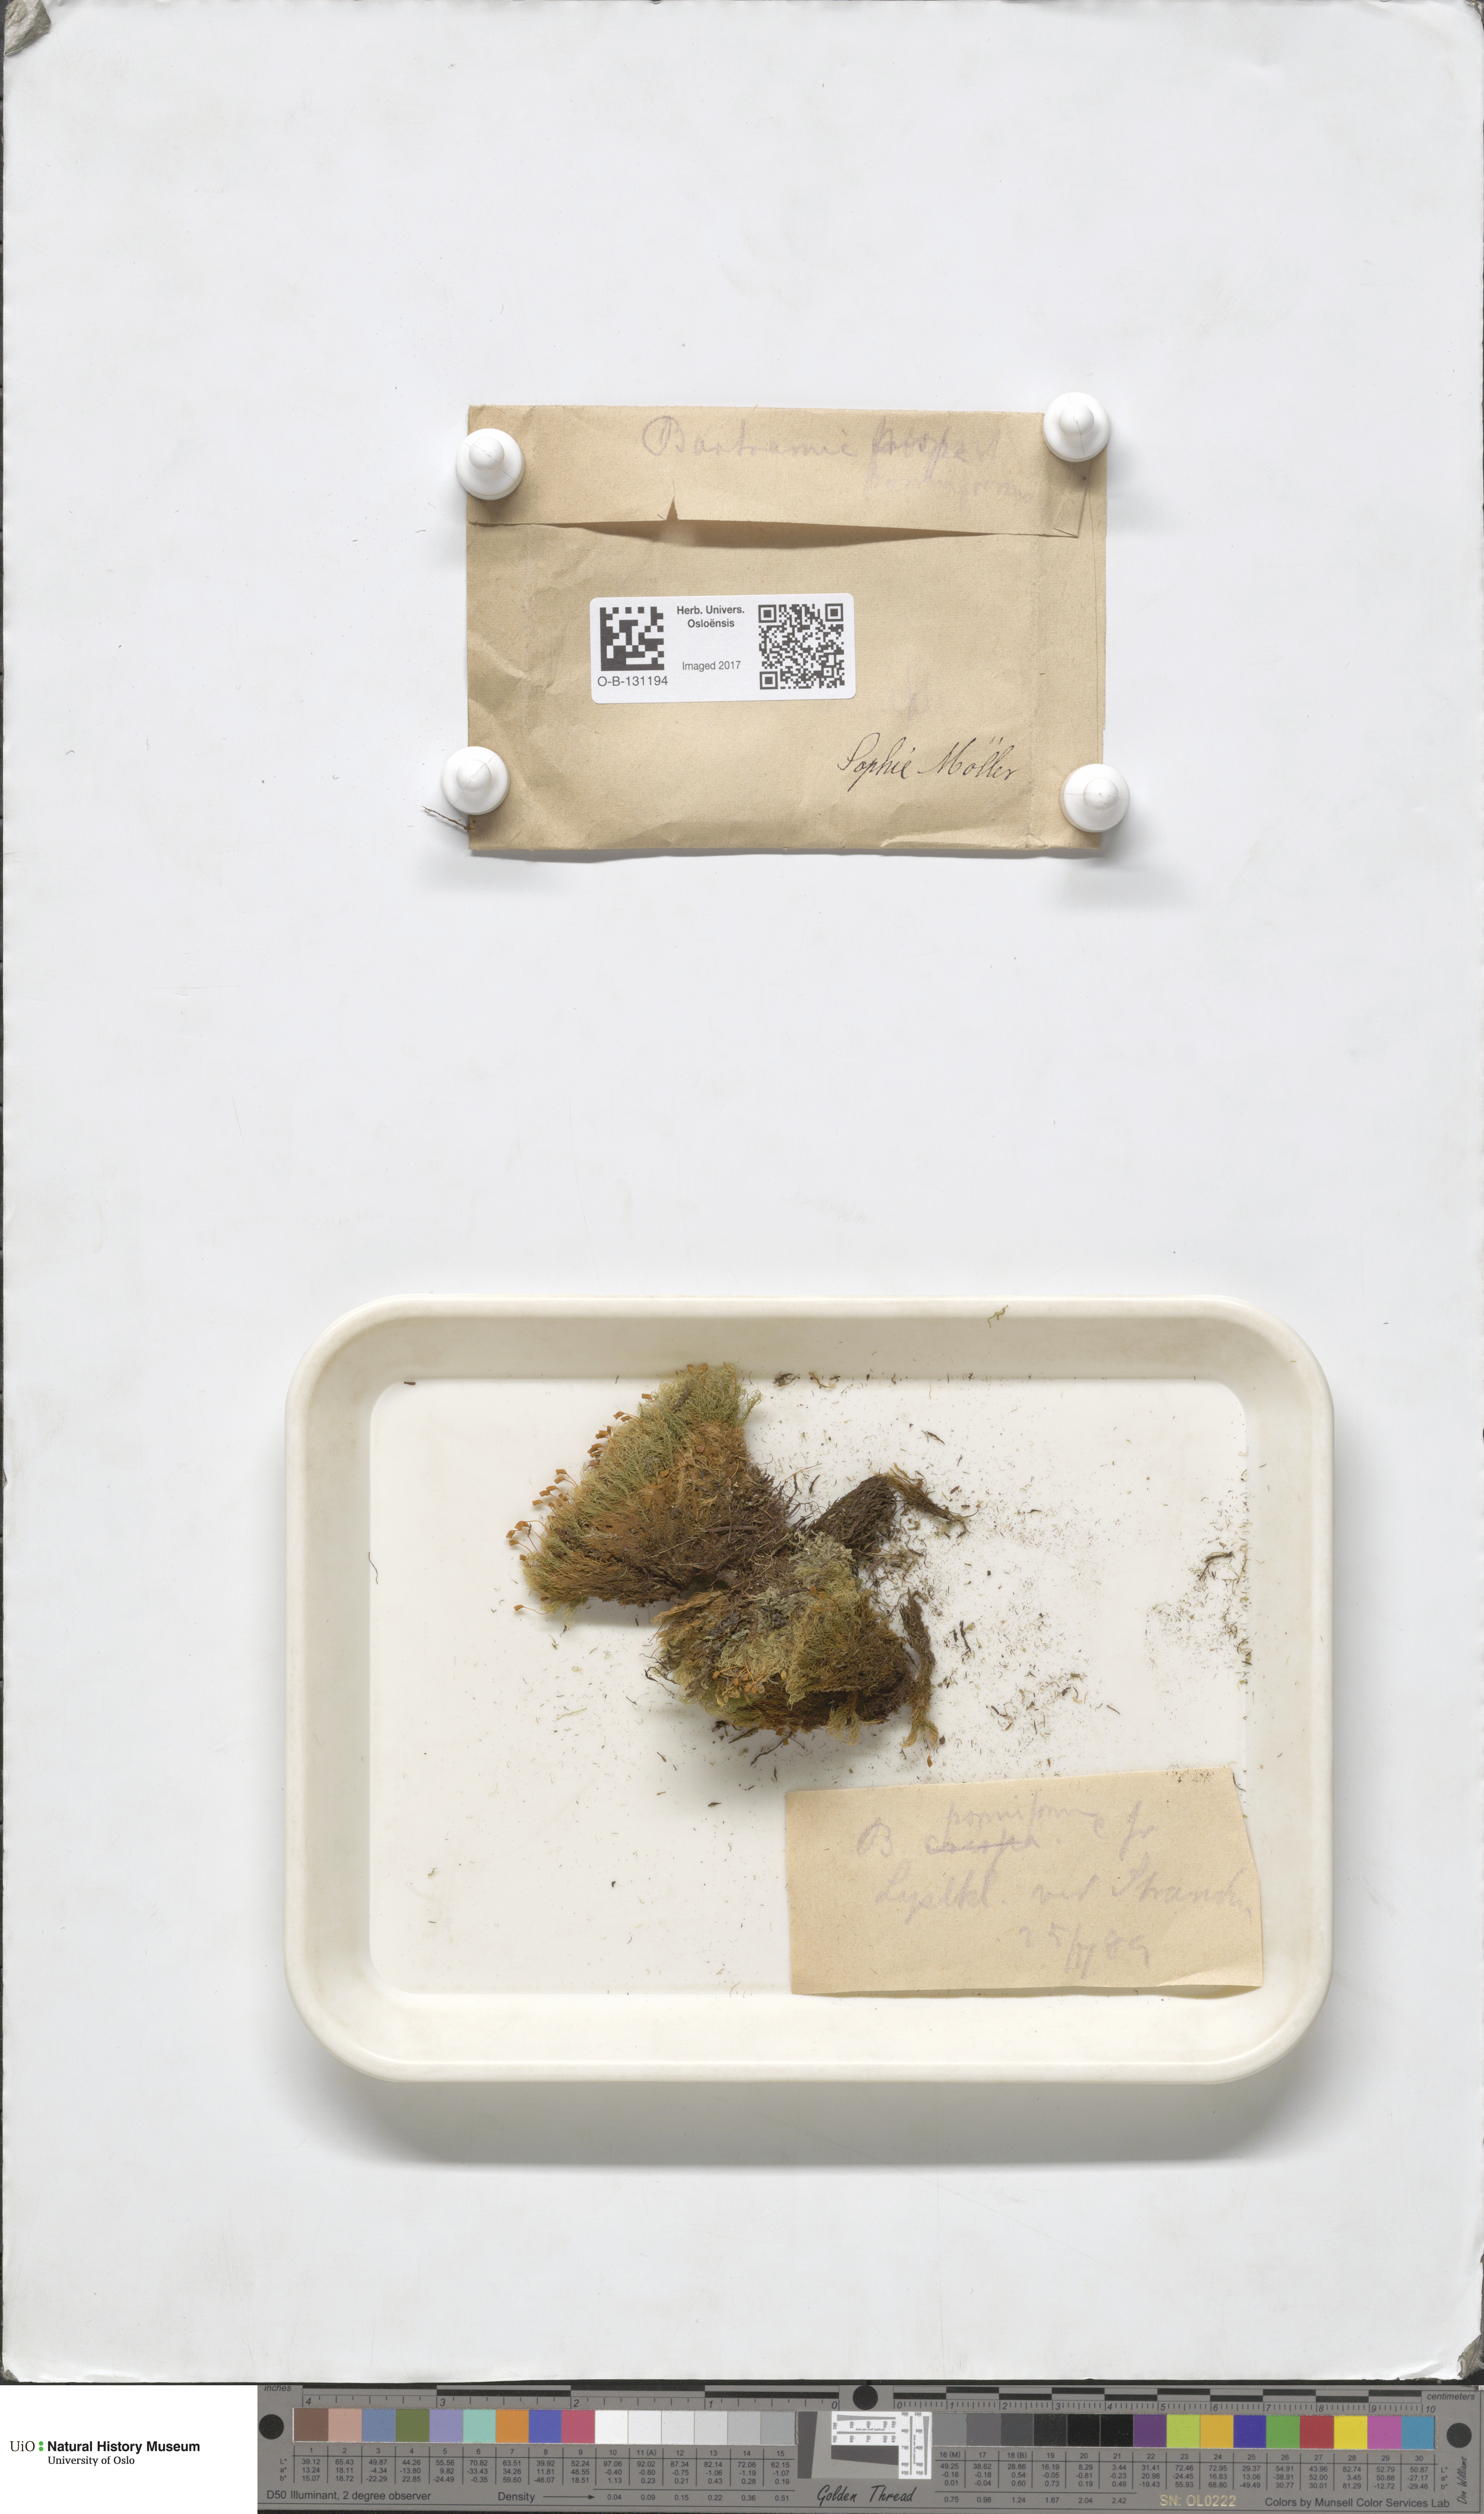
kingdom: Plantae
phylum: Bryophyta
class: Bryopsida
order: Bartramiales
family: Bartramiaceae
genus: Bartramia
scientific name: Bartramia pomiformis
